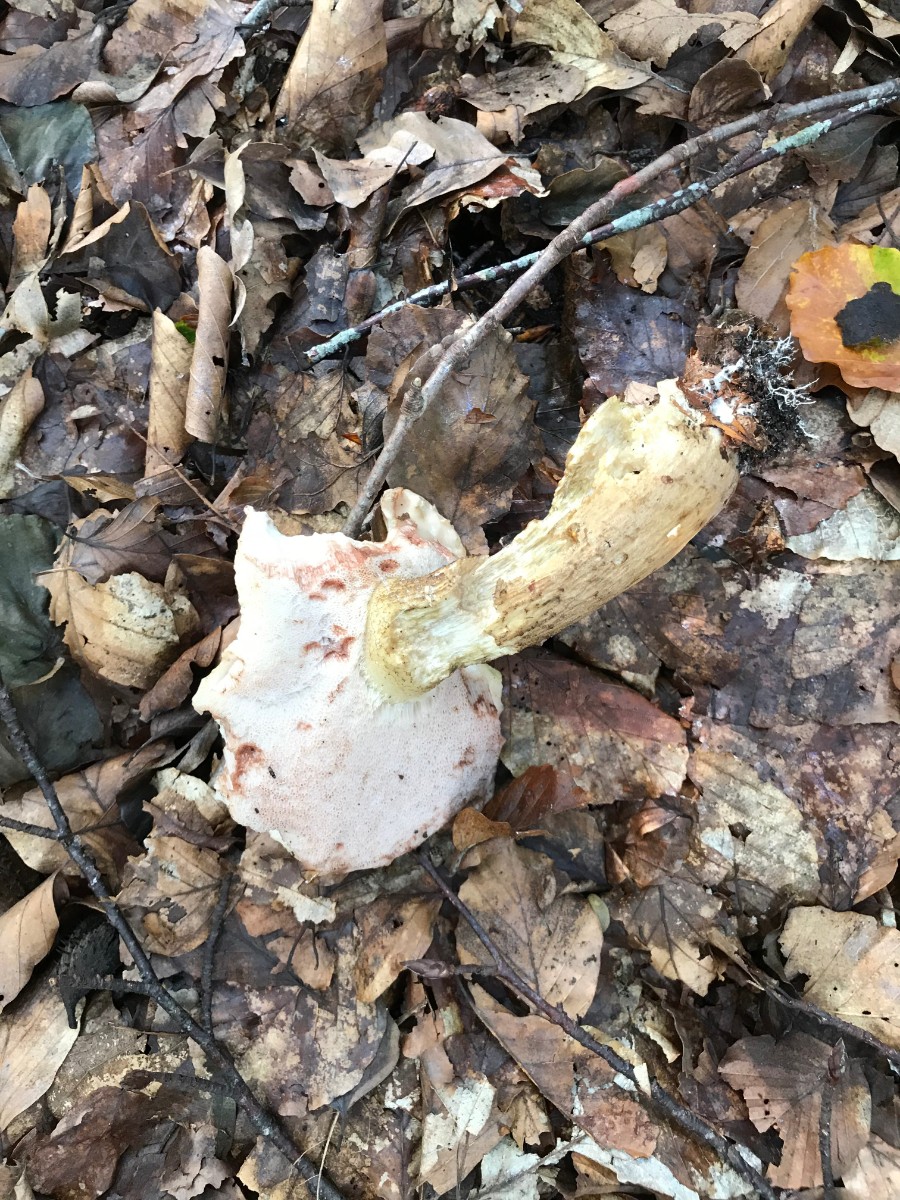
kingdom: Fungi
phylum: Basidiomycota
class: Agaricomycetes
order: Boletales
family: Boletaceae
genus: Tylopilus
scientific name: Tylopilus felleus
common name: galderørhat
